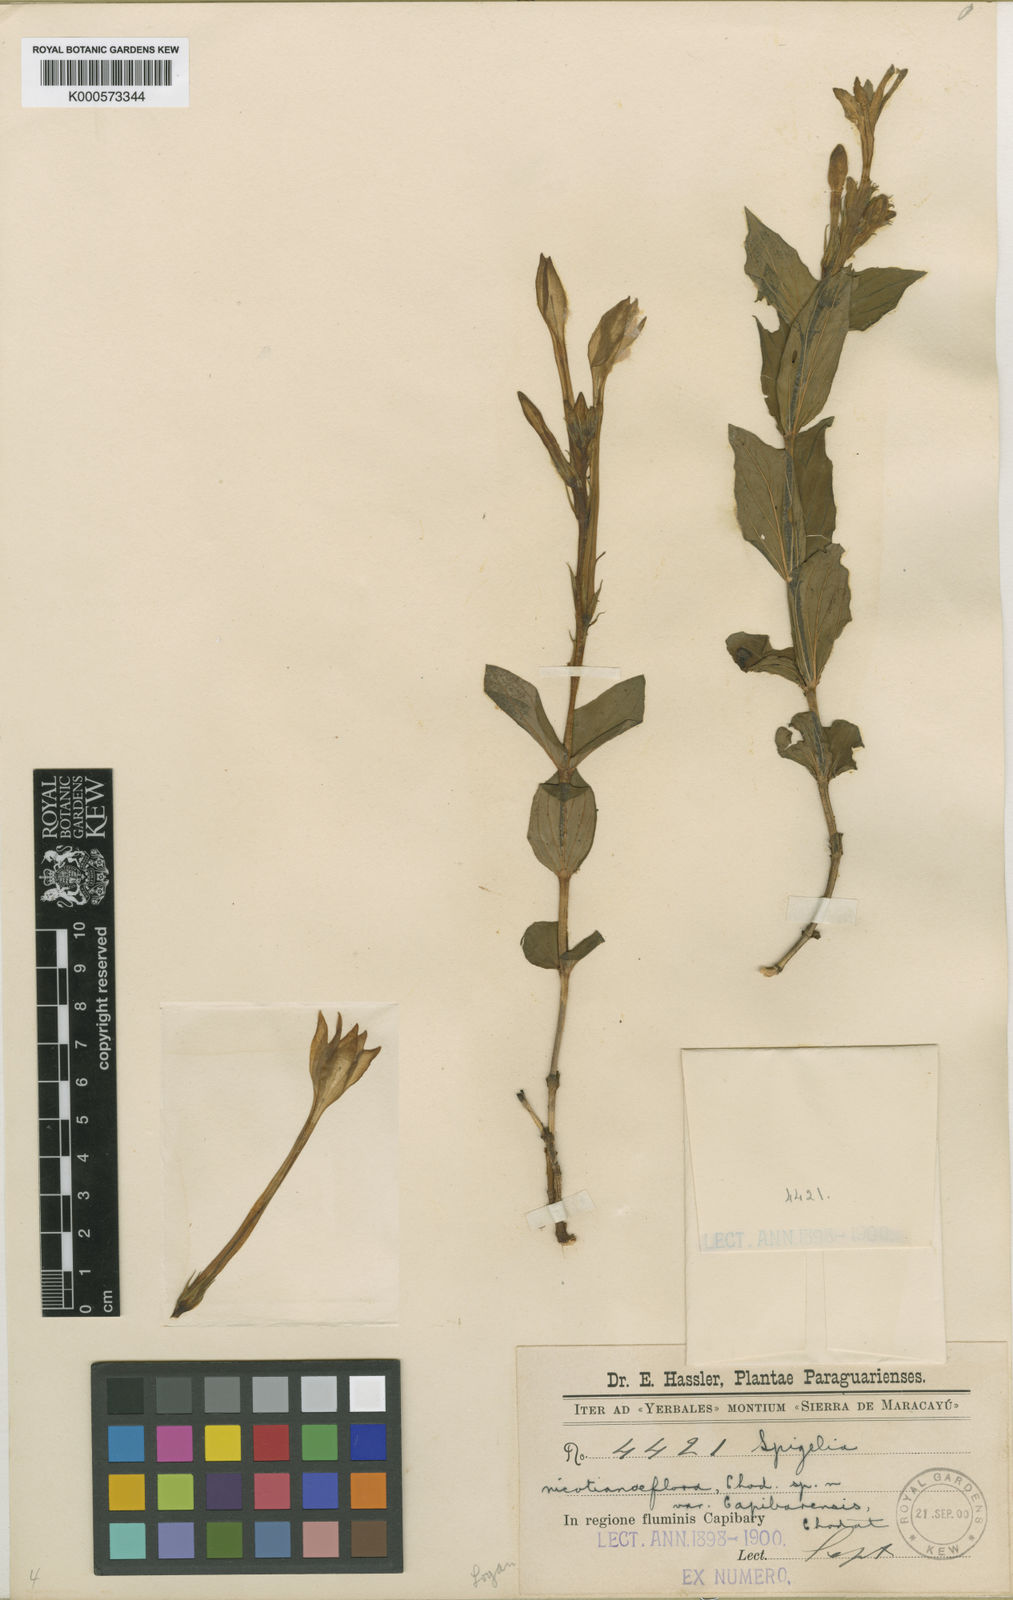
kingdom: Plantae
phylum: Tracheophyta
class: Magnoliopsida
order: Gentianales
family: Loganiaceae
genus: Spigelia
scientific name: Spigelia nicotianiflora
